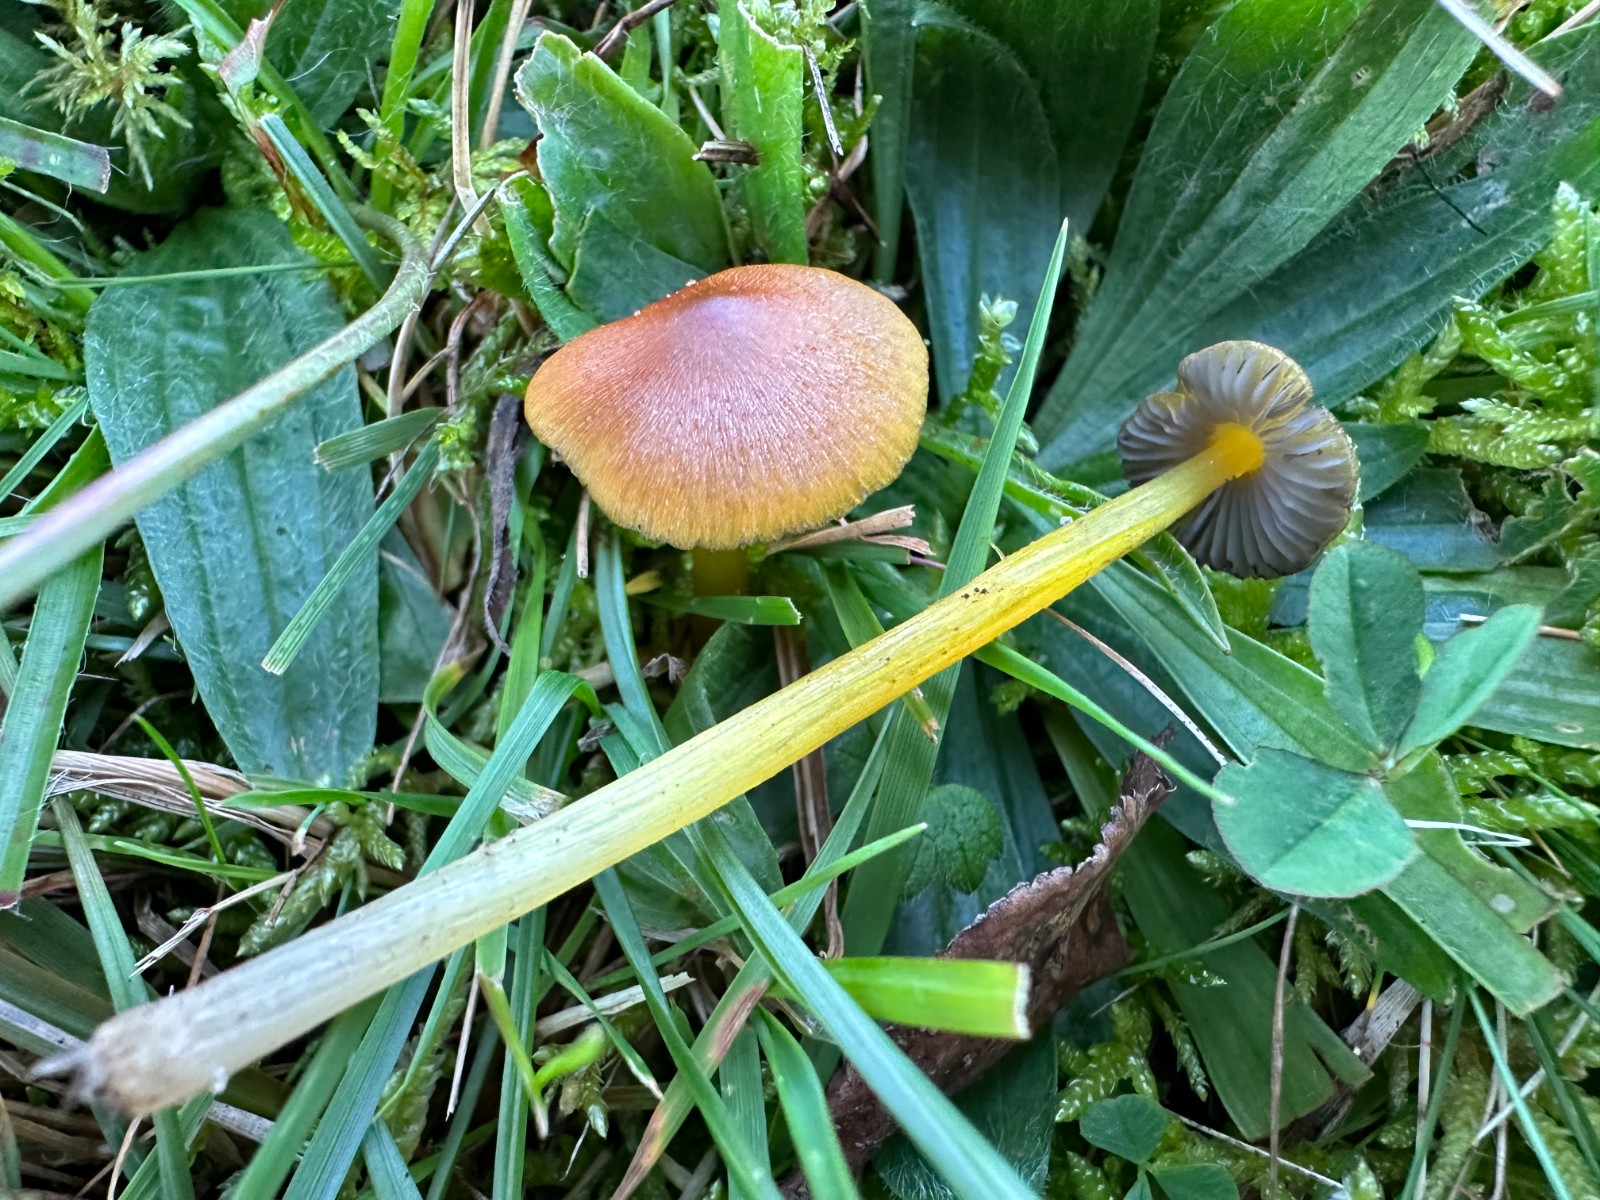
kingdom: Fungi
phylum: Basidiomycota
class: Agaricomycetes
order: Agaricales
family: Hygrophoraceae
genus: Hygrocybe
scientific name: Hygrocybe conica
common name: kegle-vokshat
